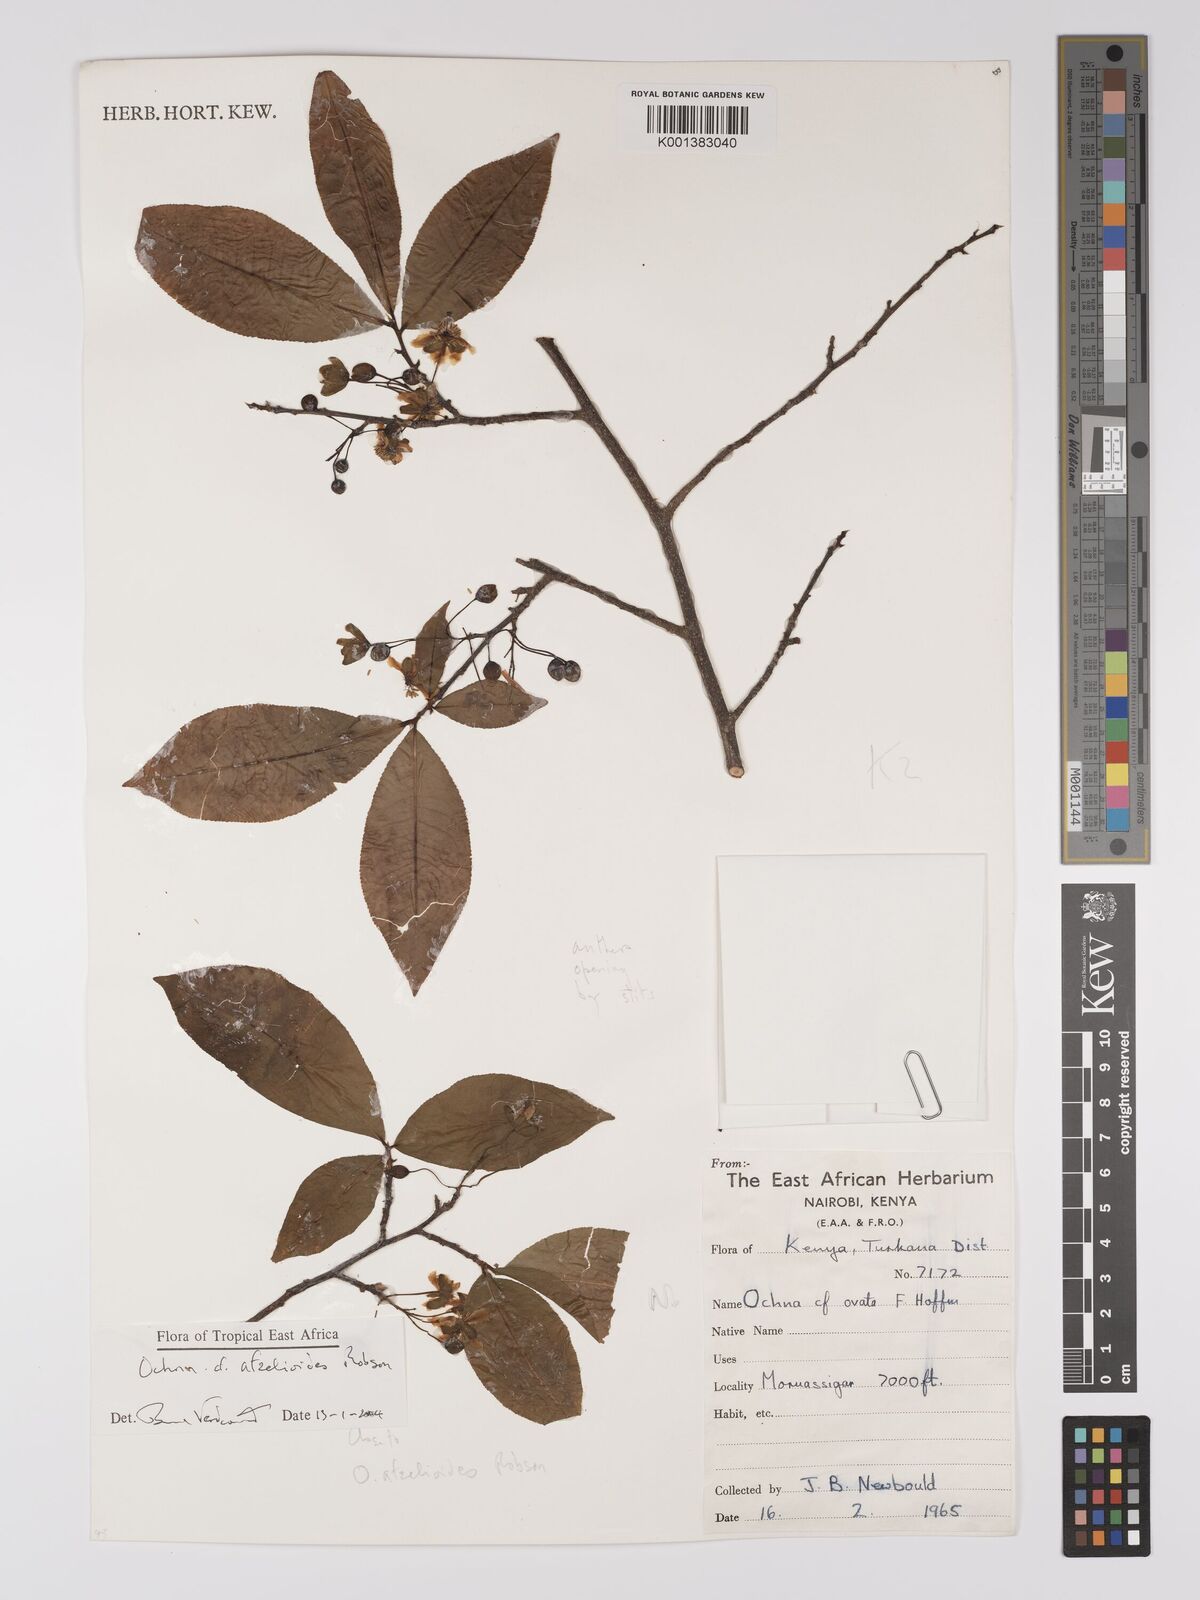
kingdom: Plantae
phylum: Tracheophyta
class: Magnoliopsida
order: Malpighiales
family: Ochnaceae
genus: Ochna
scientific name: Ochna afzelioides
